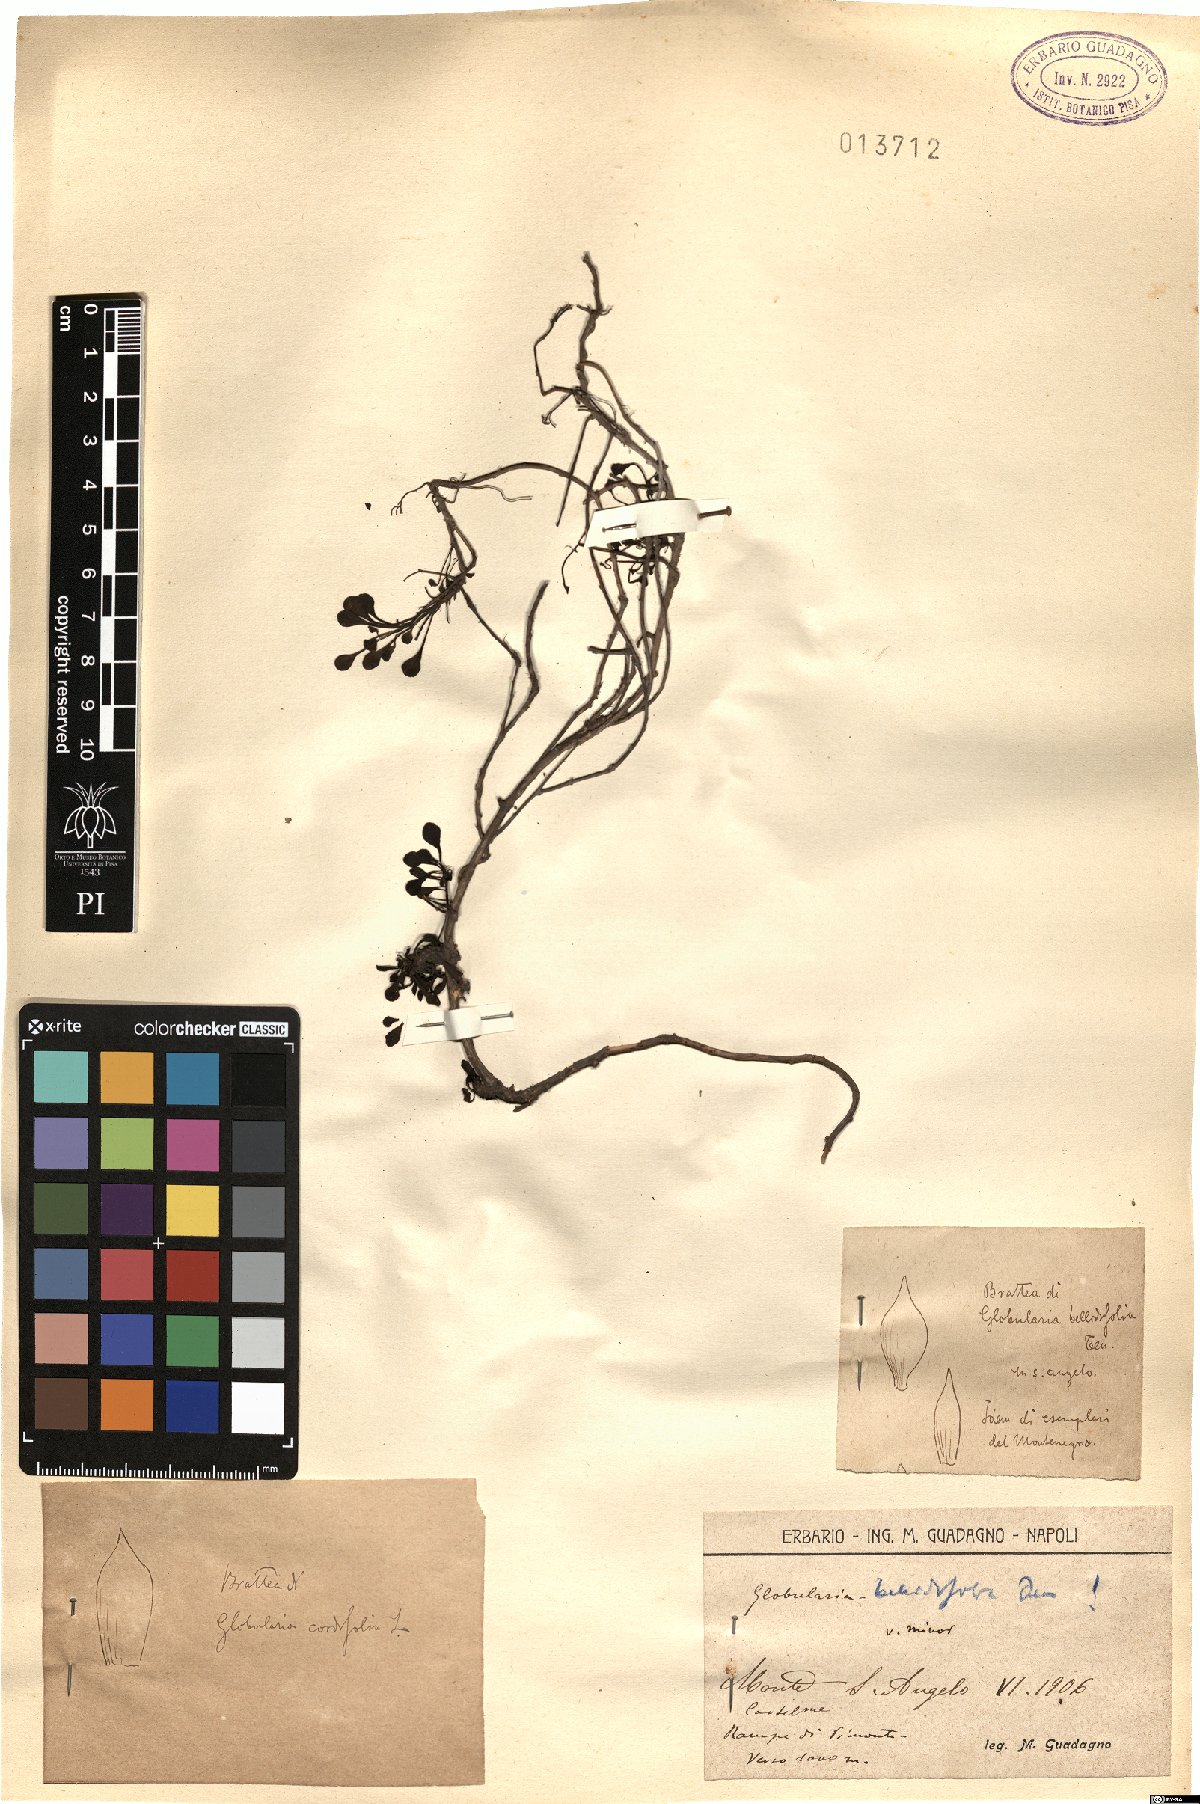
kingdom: Plantae
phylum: Tracheophyta
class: Magnoliopsida
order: Lamiales
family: Plantaginaceae
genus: Globularia
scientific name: Globularia meridionalis
